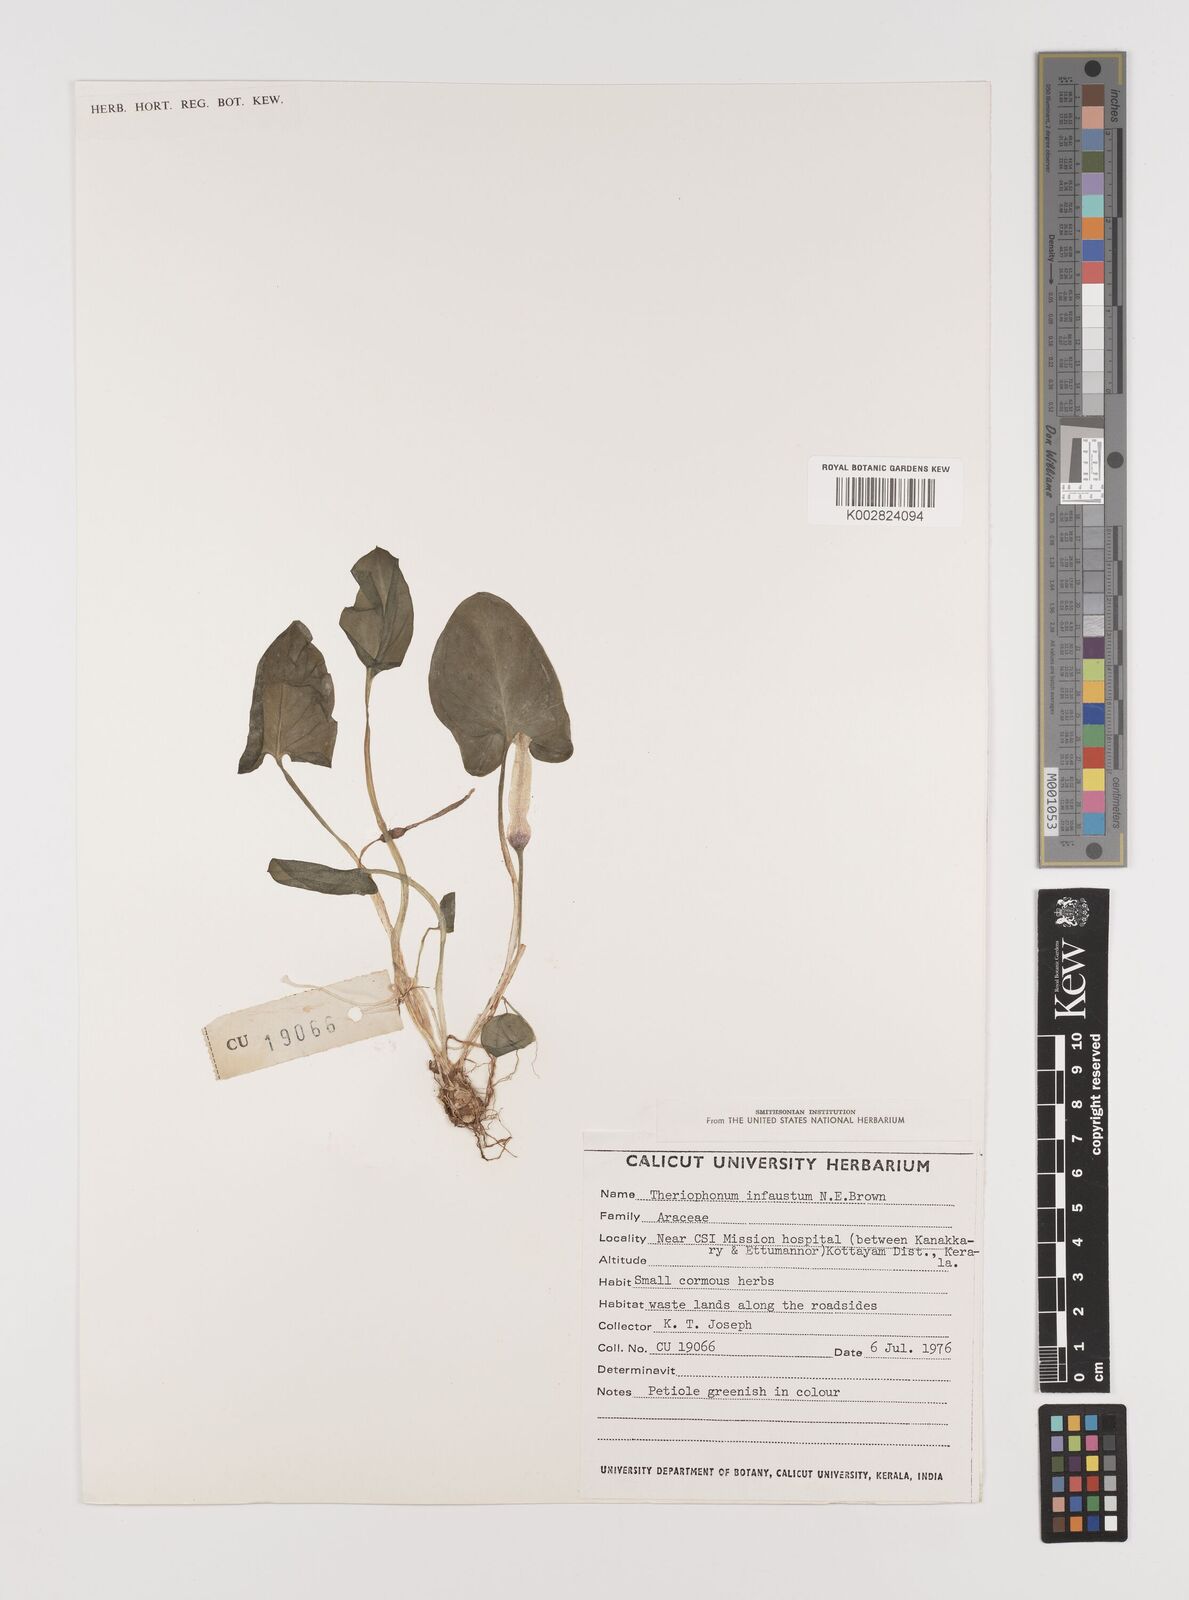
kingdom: Plantae
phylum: Tracheophyta
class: Liliopsida
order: Alismatales
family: Araceae
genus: Theriophonum
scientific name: Theriophonum infaustum
